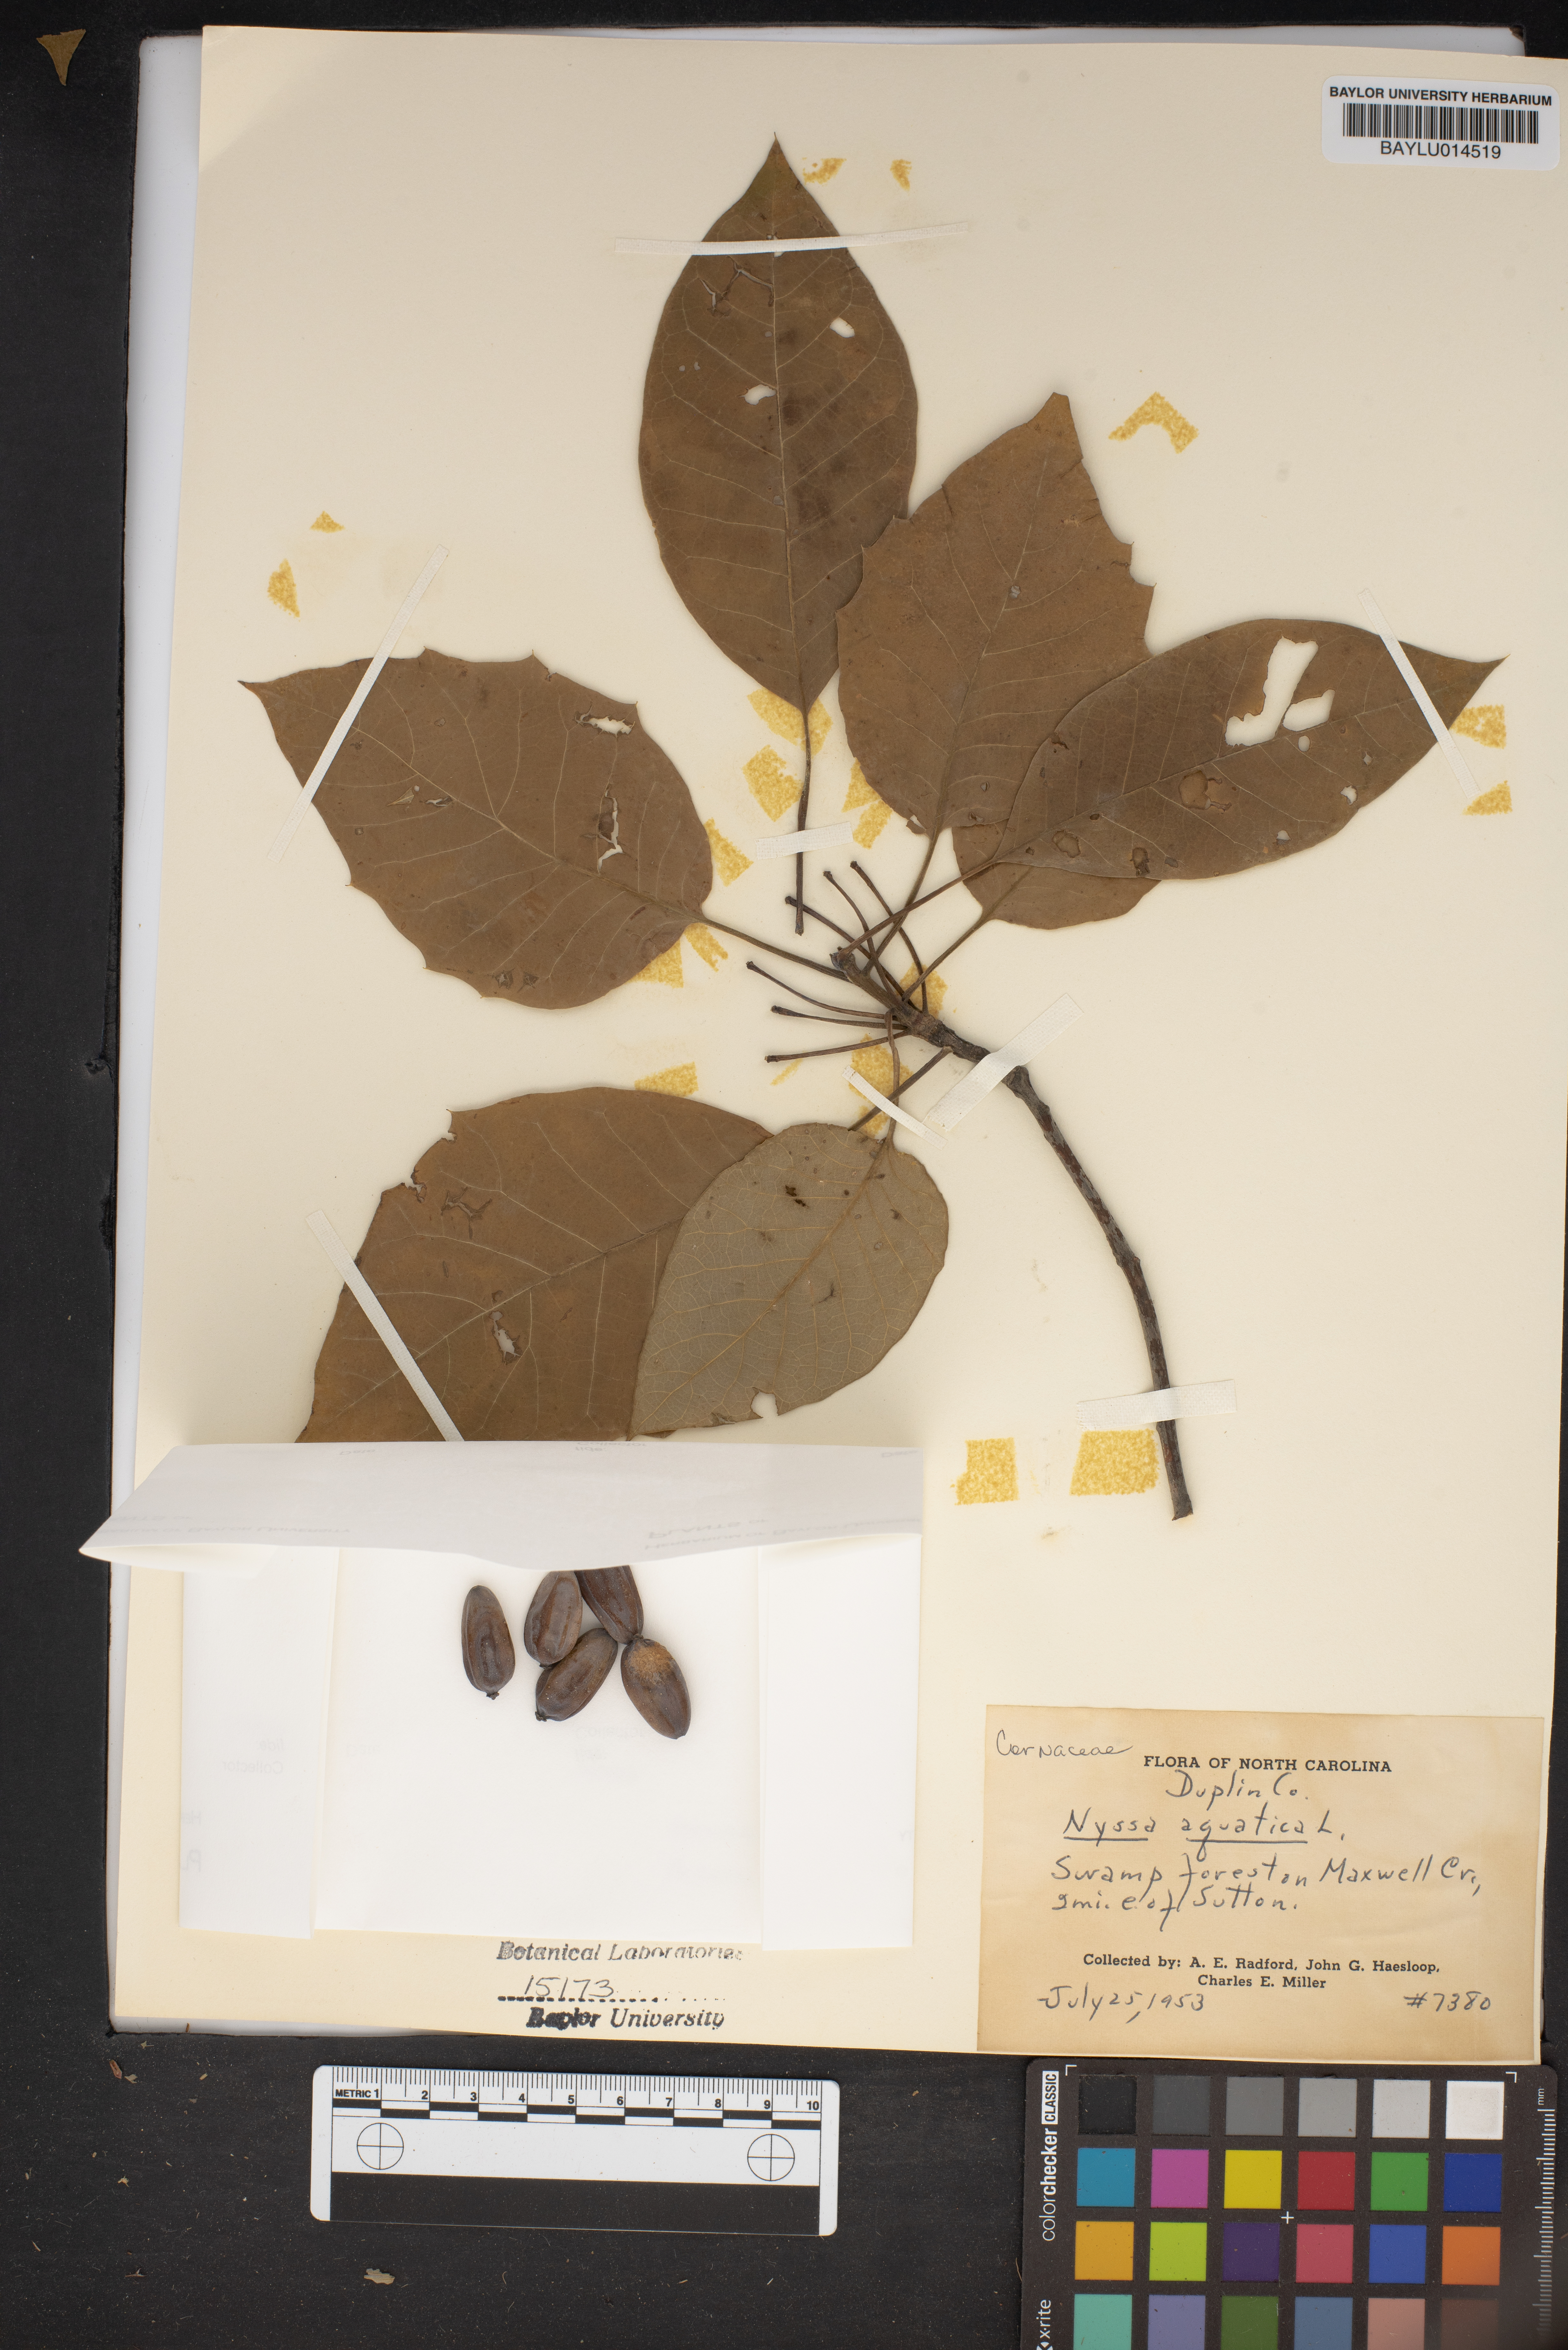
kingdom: Plantae
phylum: Tracheophyta
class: Magnoliopsida
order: Cornales
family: Nyssaceae
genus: Nyssa
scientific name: Nyssa aquatica
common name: Swamp tupelo
